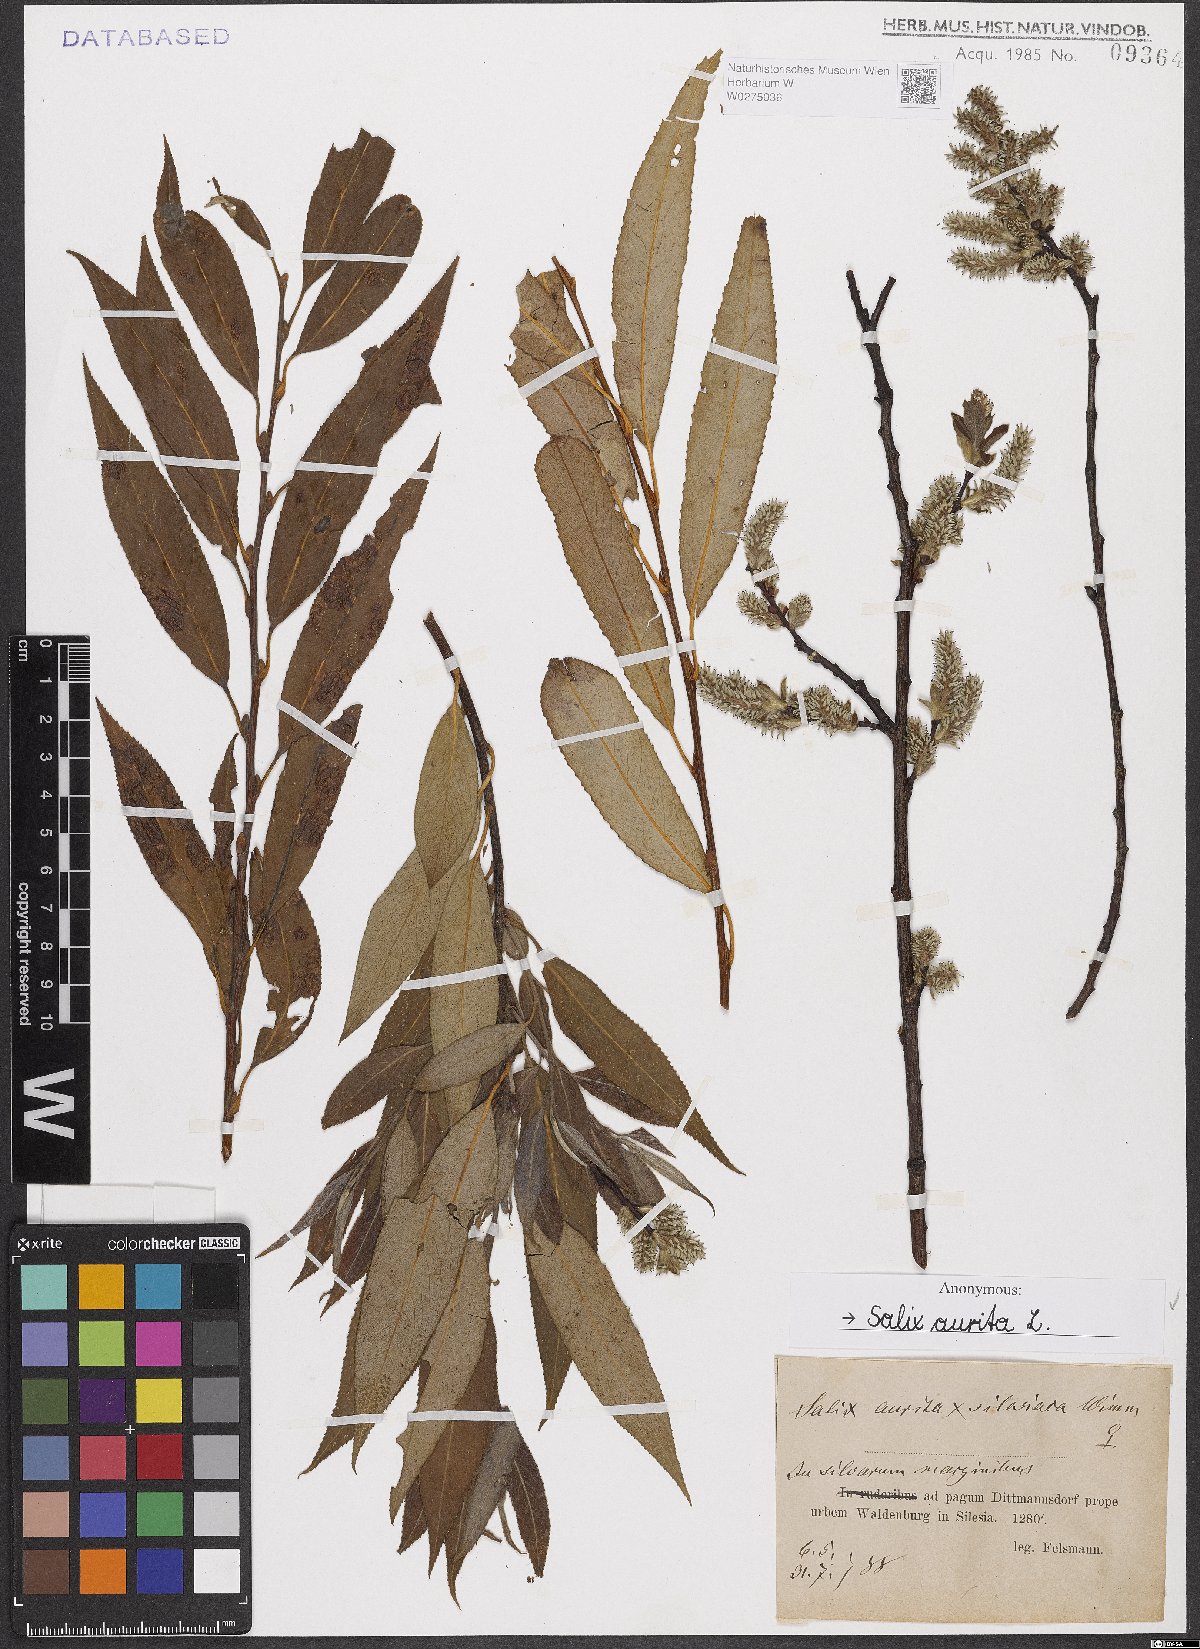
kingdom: Plantae
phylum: Tracheophyta
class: Magnoliopsida
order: Malpighiales
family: Salicaceae
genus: Salix
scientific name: Salix aurita
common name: Eared willow
